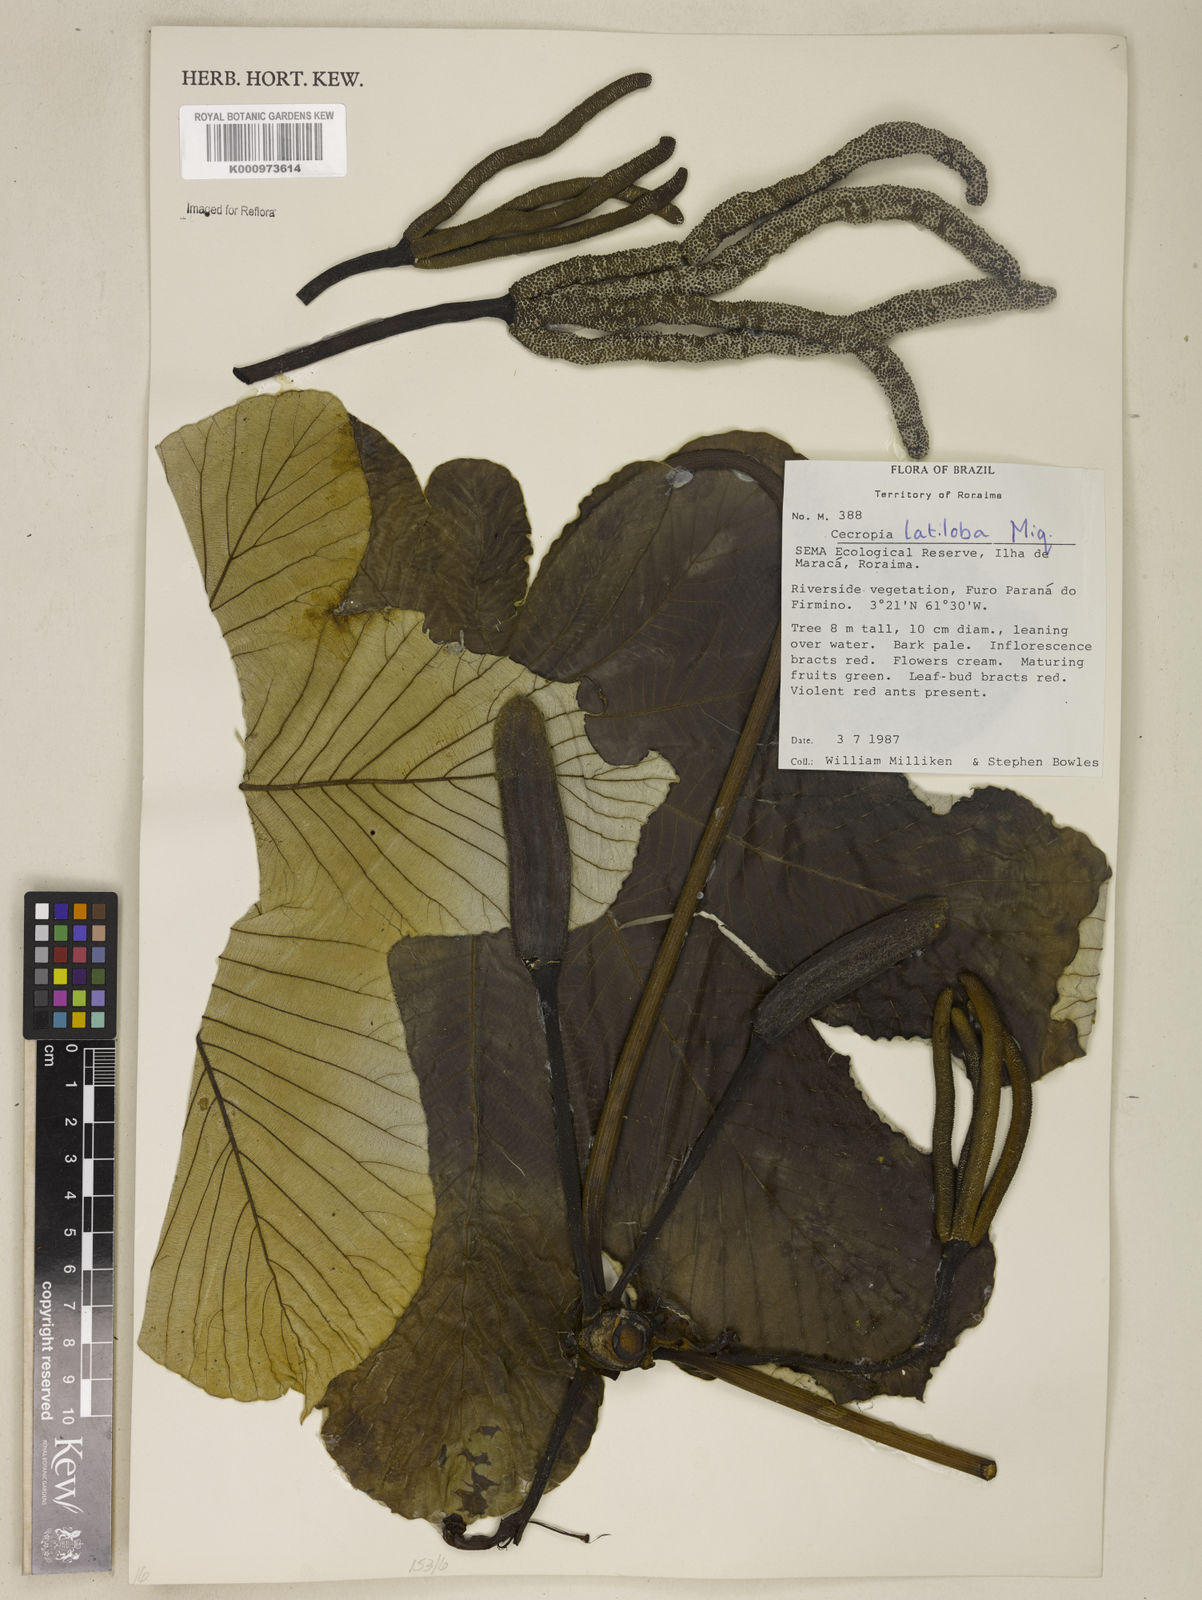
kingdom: Plantae
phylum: Tracheophyta
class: Magnoliopsida
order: Rosales
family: Urticaceae
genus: Cecropia
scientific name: Cecropia latiloba
